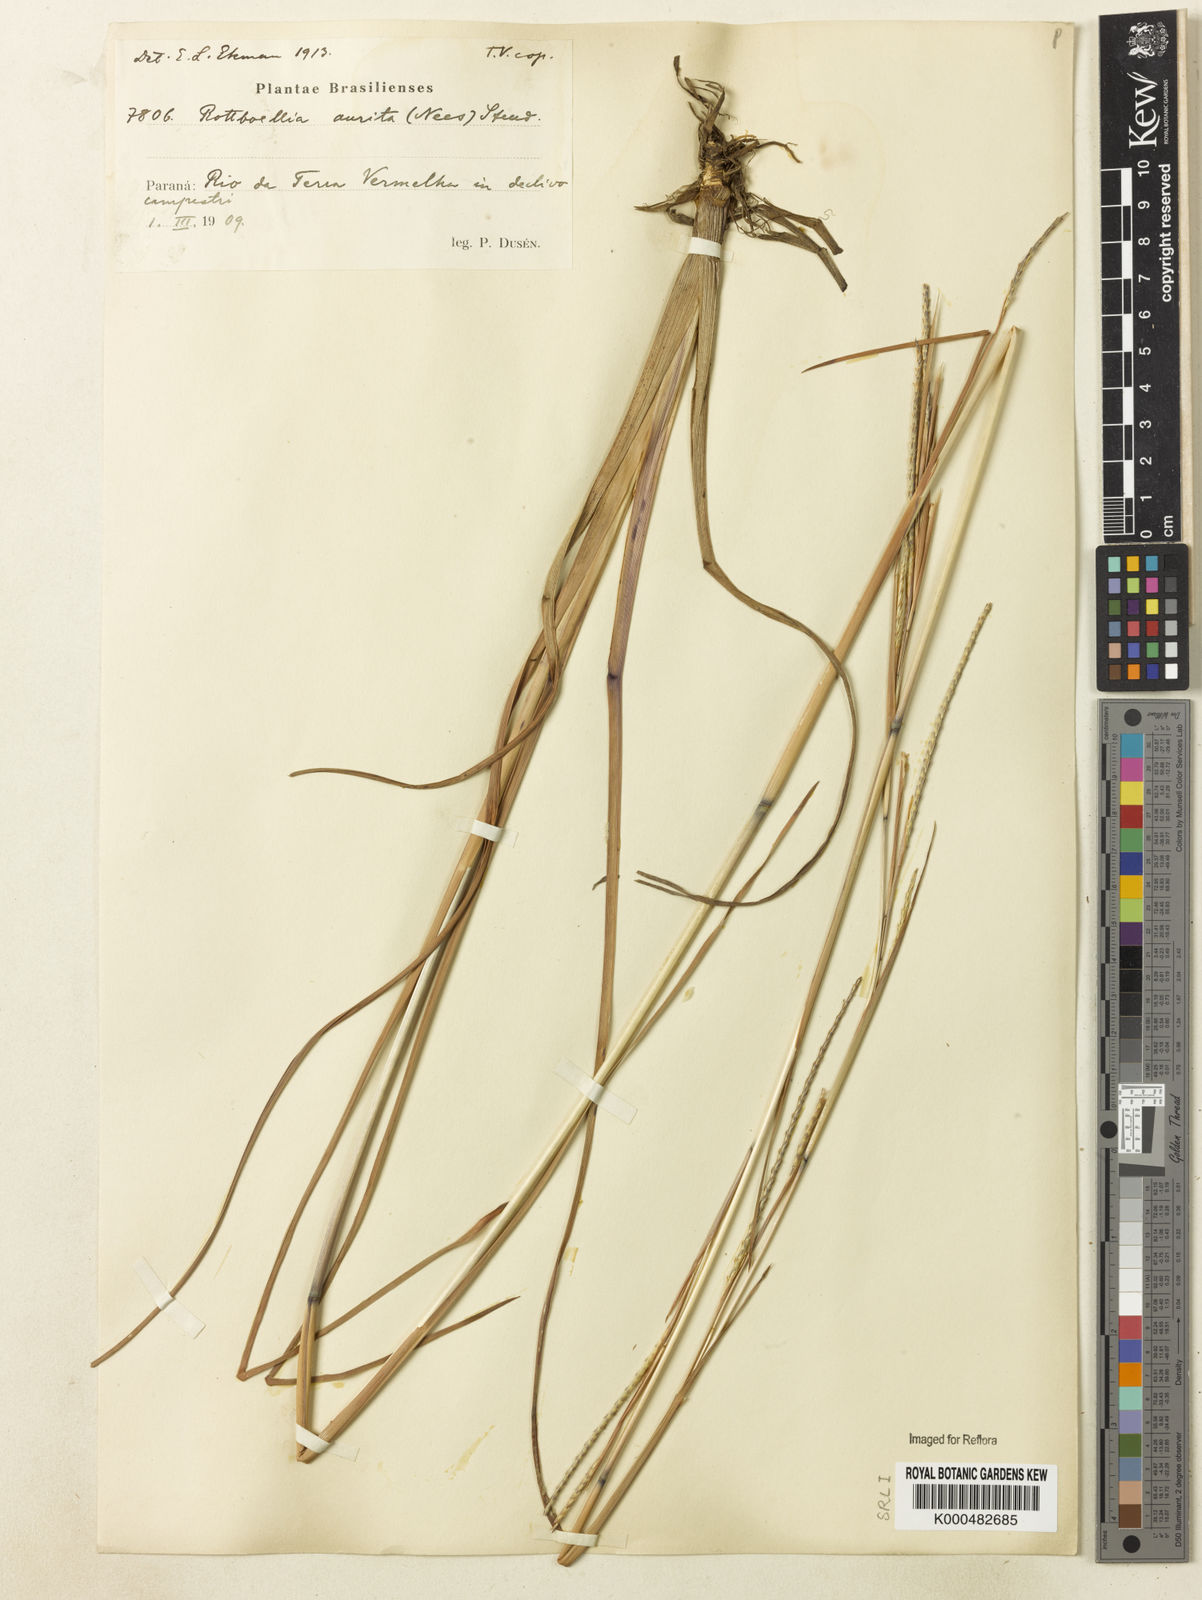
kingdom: Plantae
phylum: Tracheophyta
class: Liliopsida
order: Poales
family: Poaceae
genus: Rottboellia
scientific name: Rottboellia aurita
